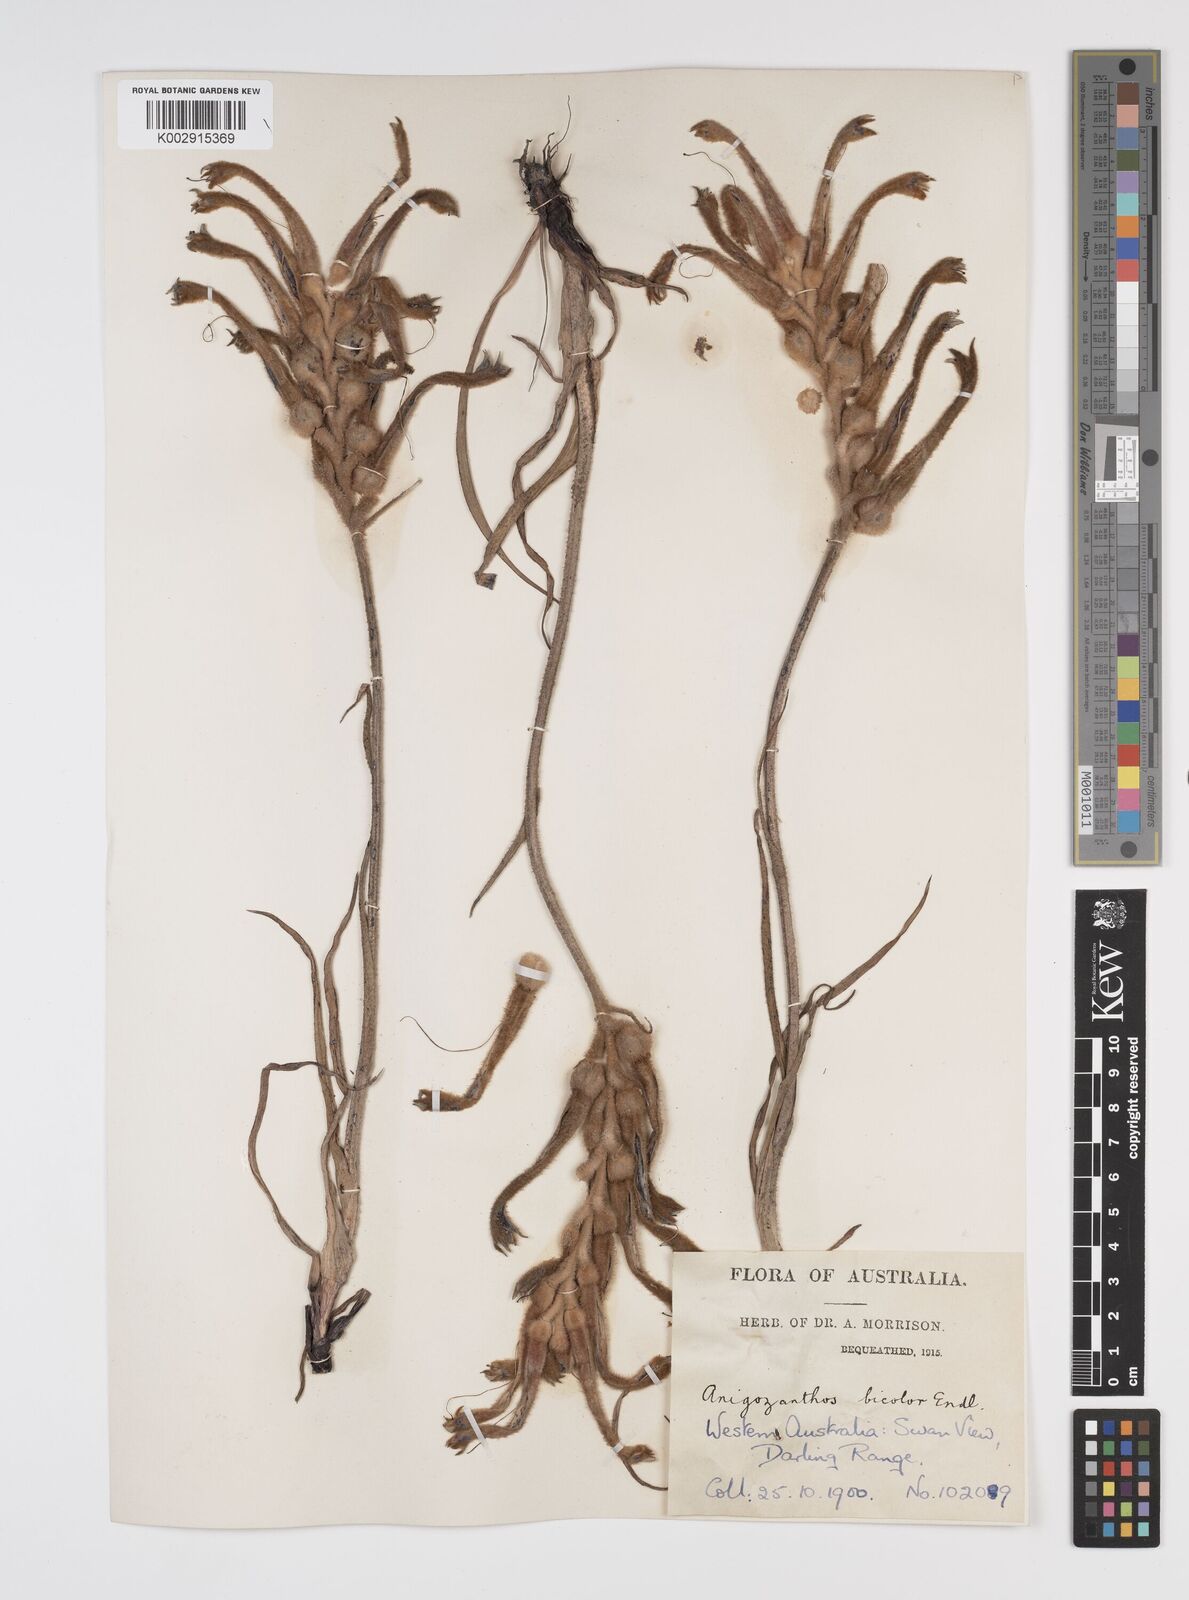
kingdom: Plantae
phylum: Tracheophyta
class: Liliopsida
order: Commelinales
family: Haemodoraceae
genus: Anigozanthos
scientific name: Anigozanthos bicolor
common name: Little kangaroo-paw
